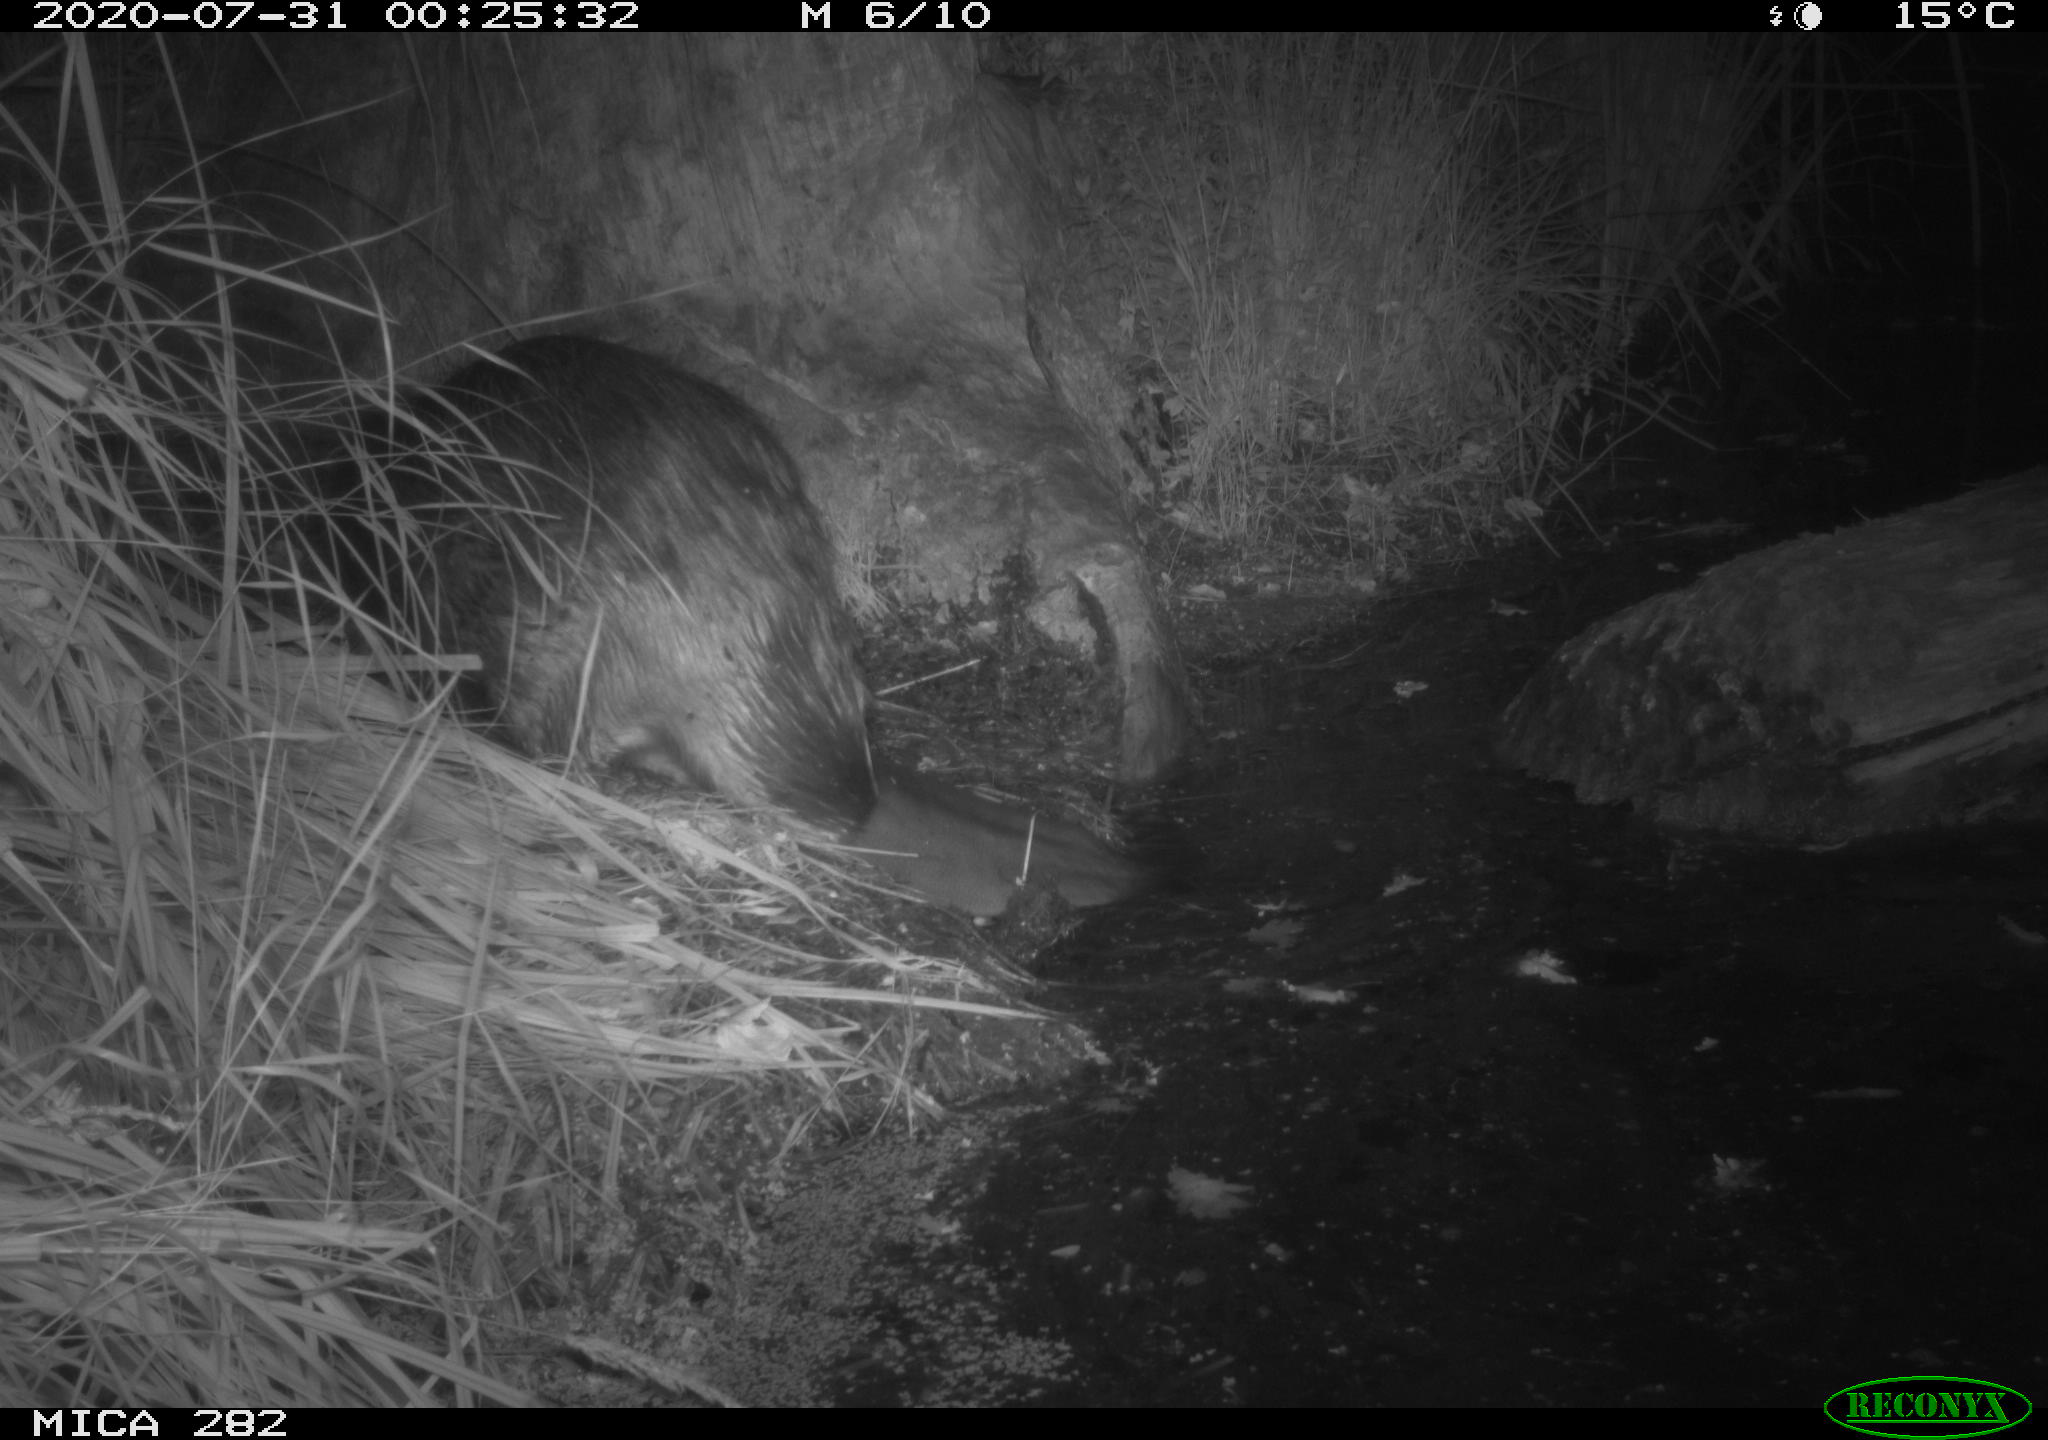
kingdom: Animalia
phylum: Chordata
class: Mammalia
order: Rodentia
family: Castoridae
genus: Castor
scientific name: Castor fiber
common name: Eurasian beaver
